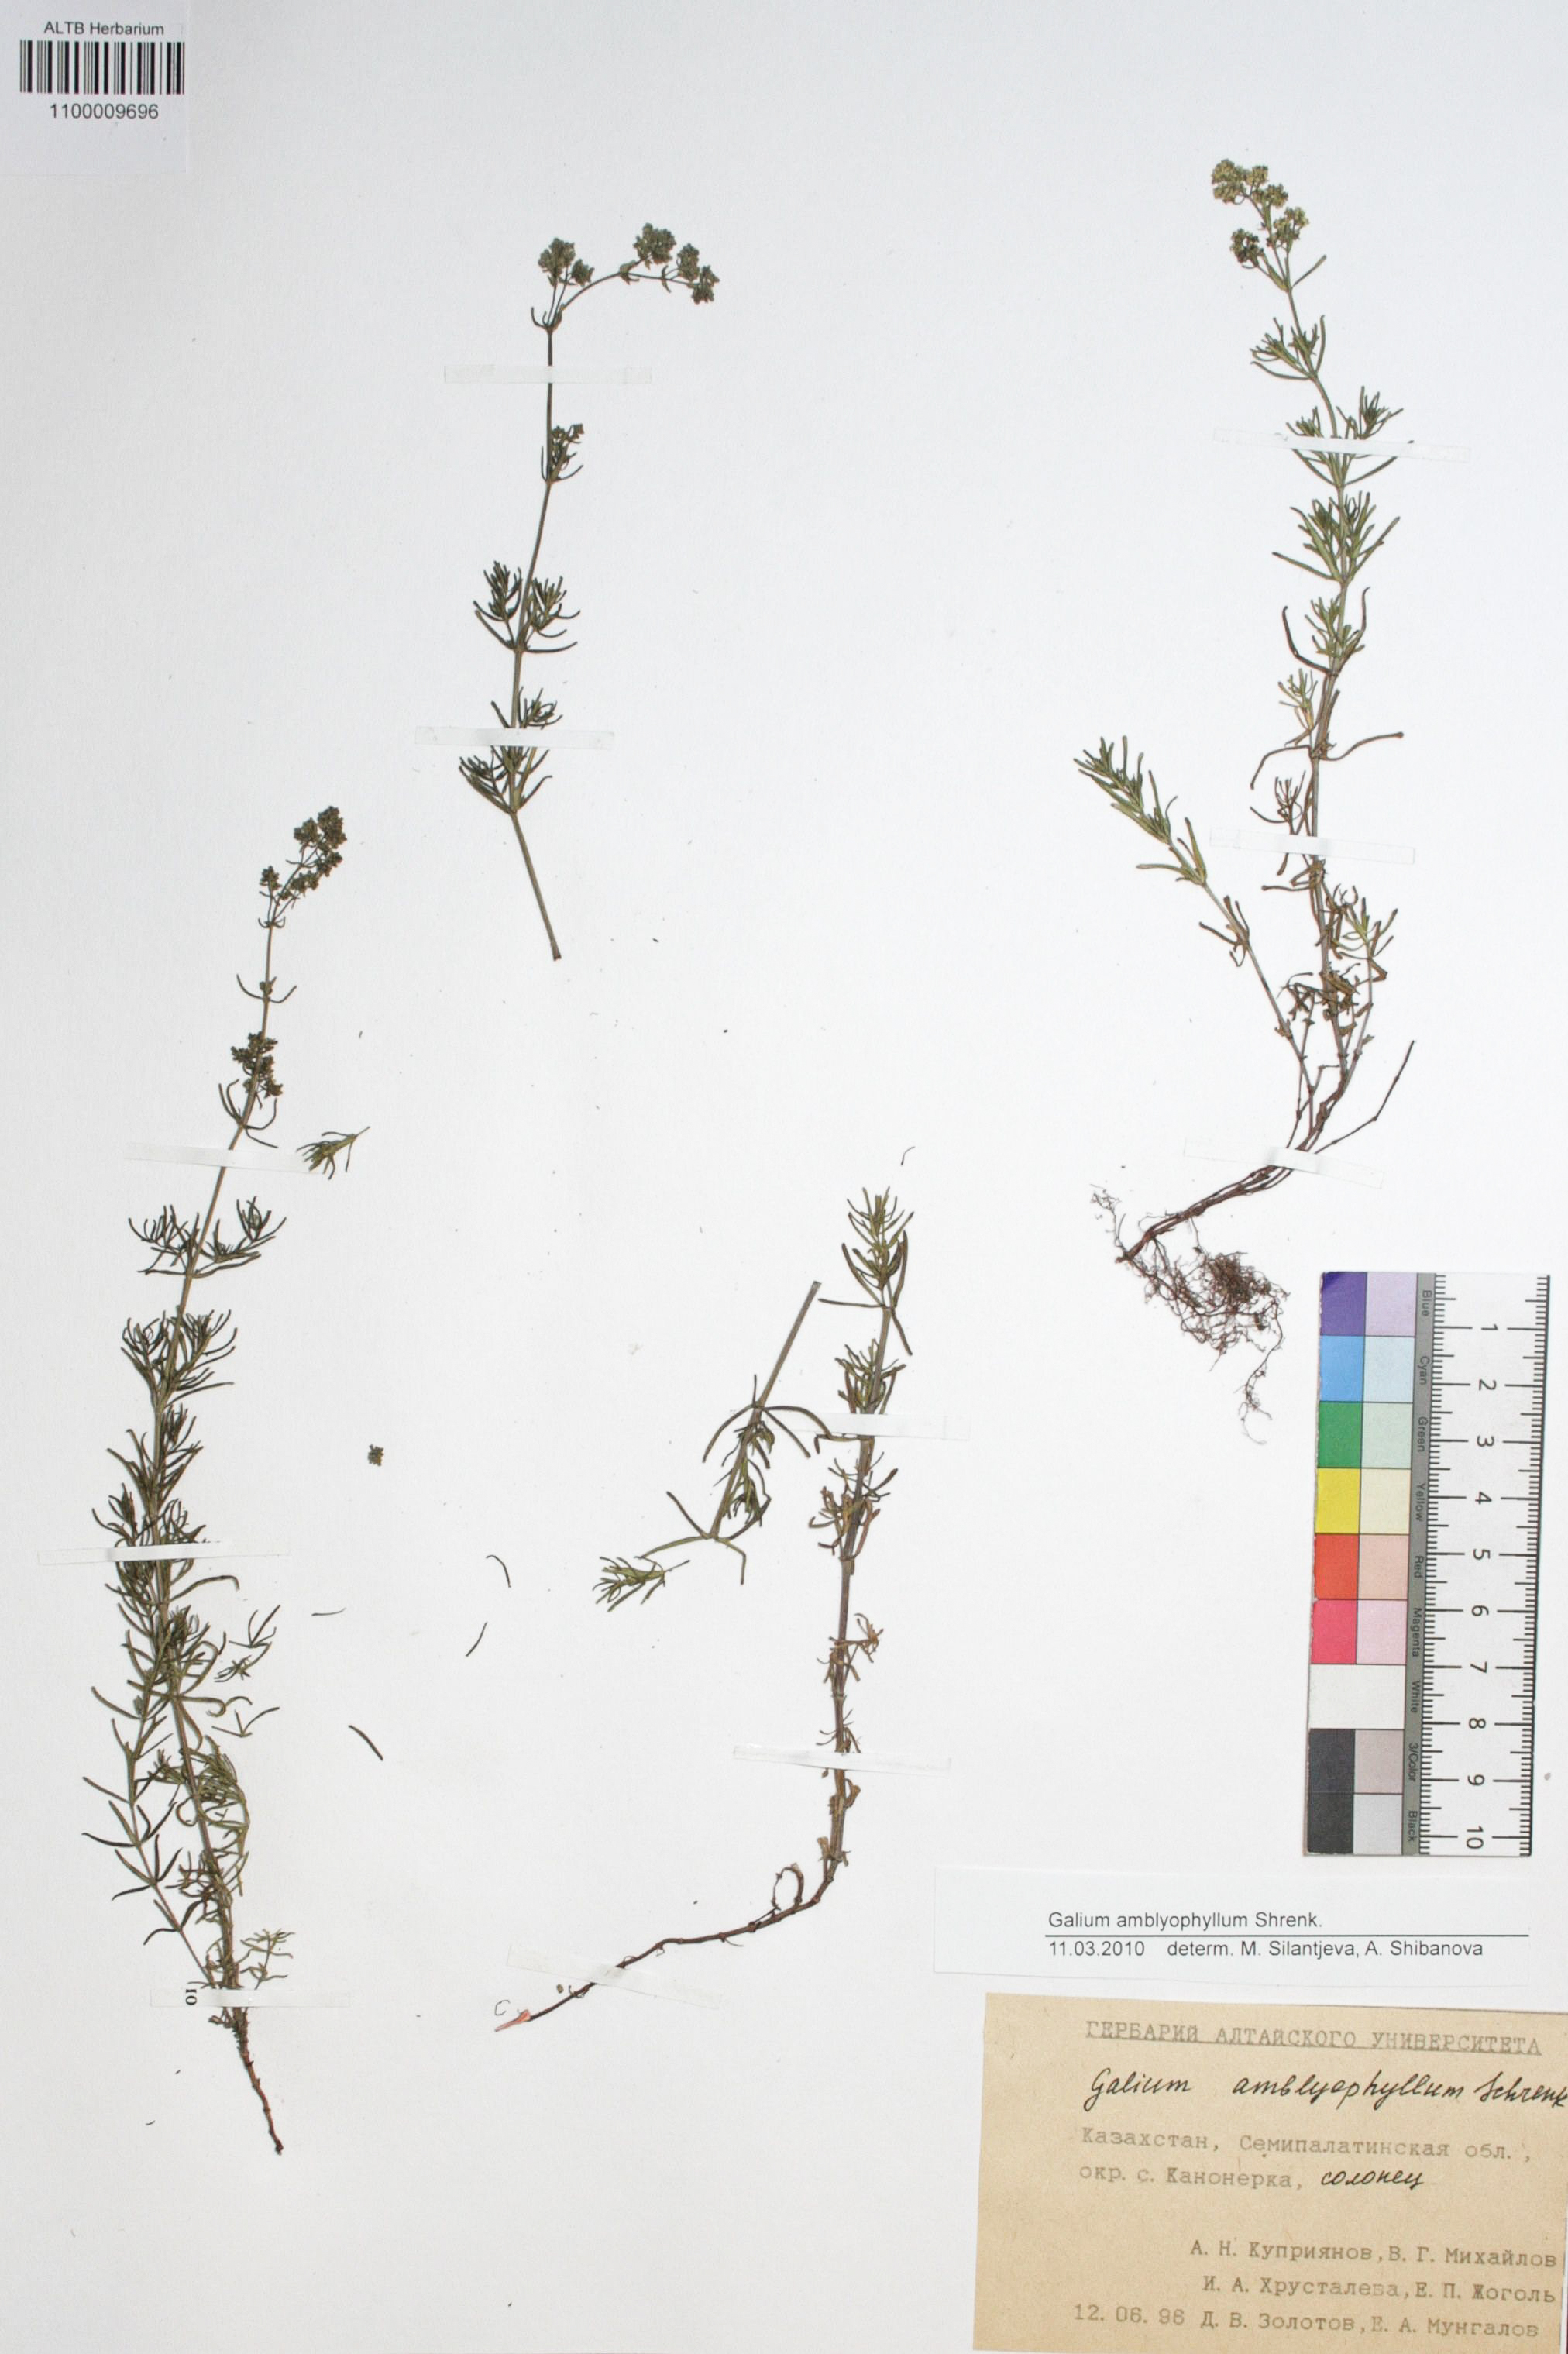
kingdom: Plantae
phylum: Tracheophyta
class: Magnoliopsida
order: Gentianales
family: Rubiaceae
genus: Galium
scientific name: Galium amblyophyllum
